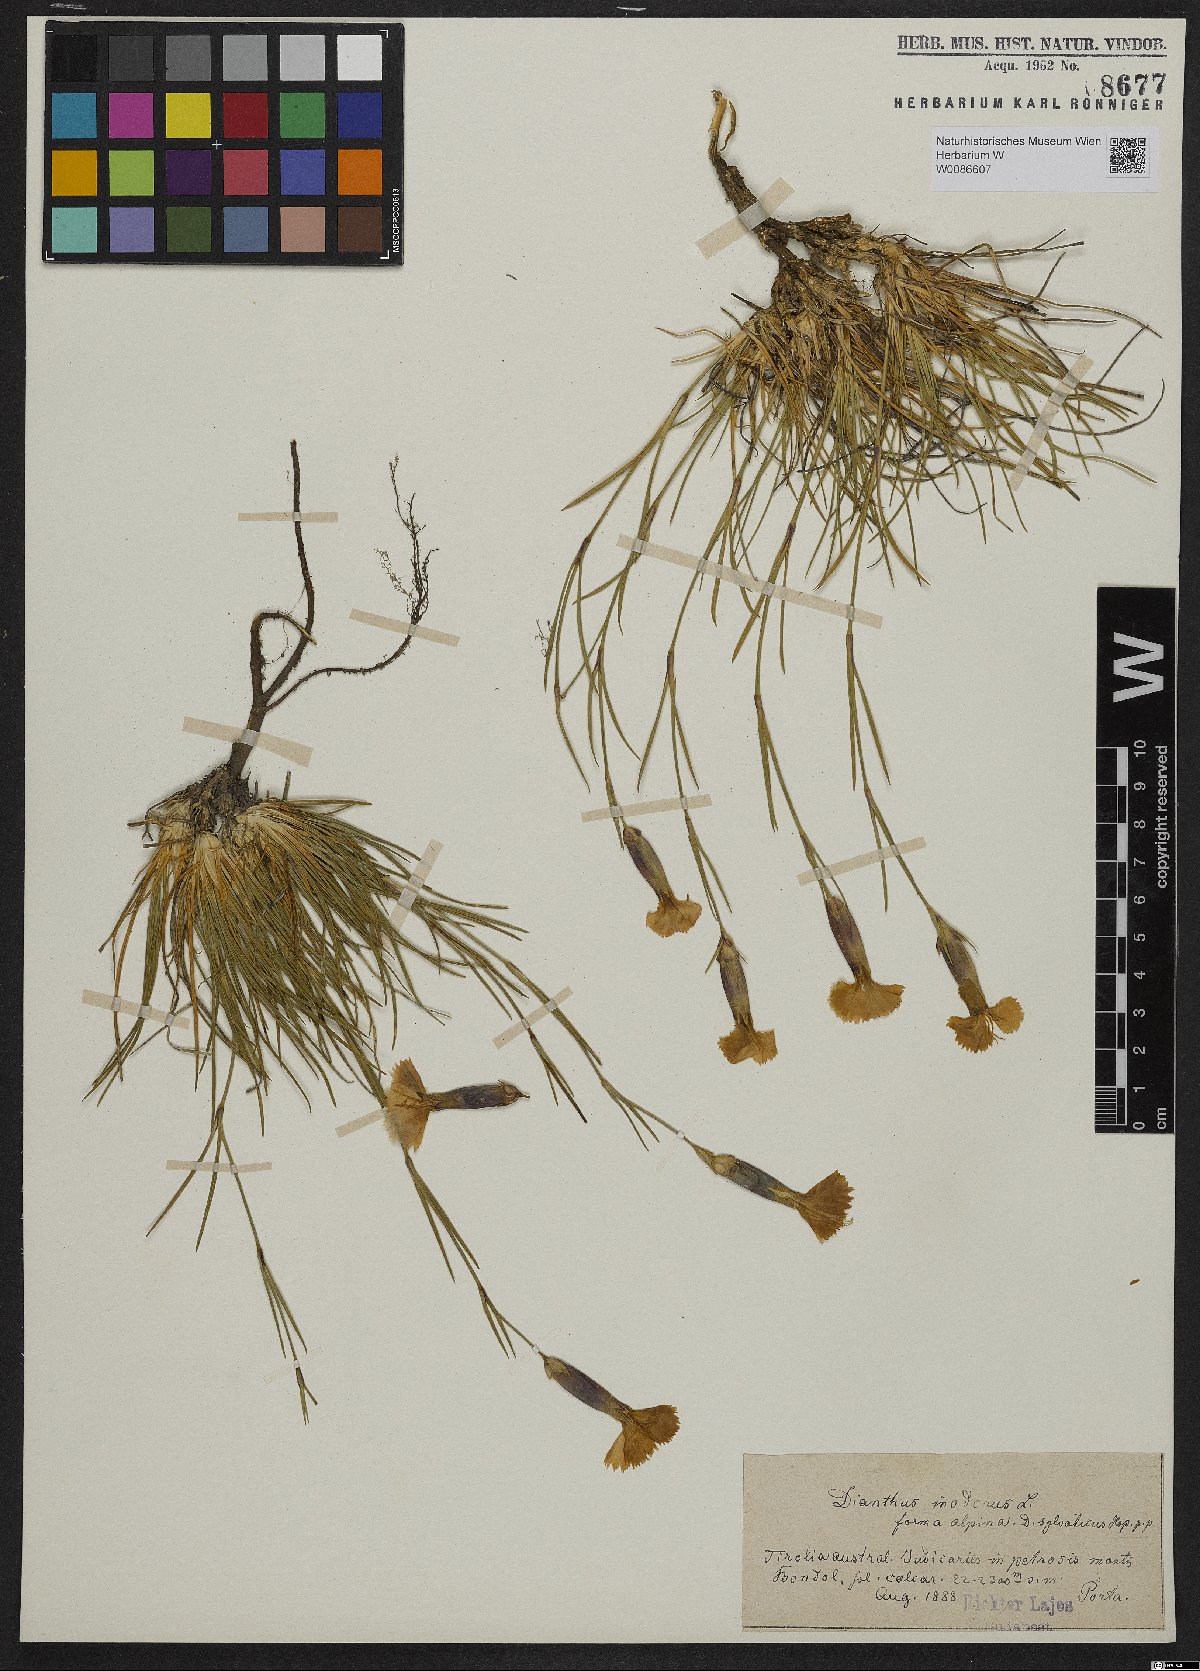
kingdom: Plantae
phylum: Tracheophyta
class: Magnoliopsida
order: Caryophyllales
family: Caryophyllaceae
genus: Dianthus
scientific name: Dianthus sylvestris
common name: Wood pink
